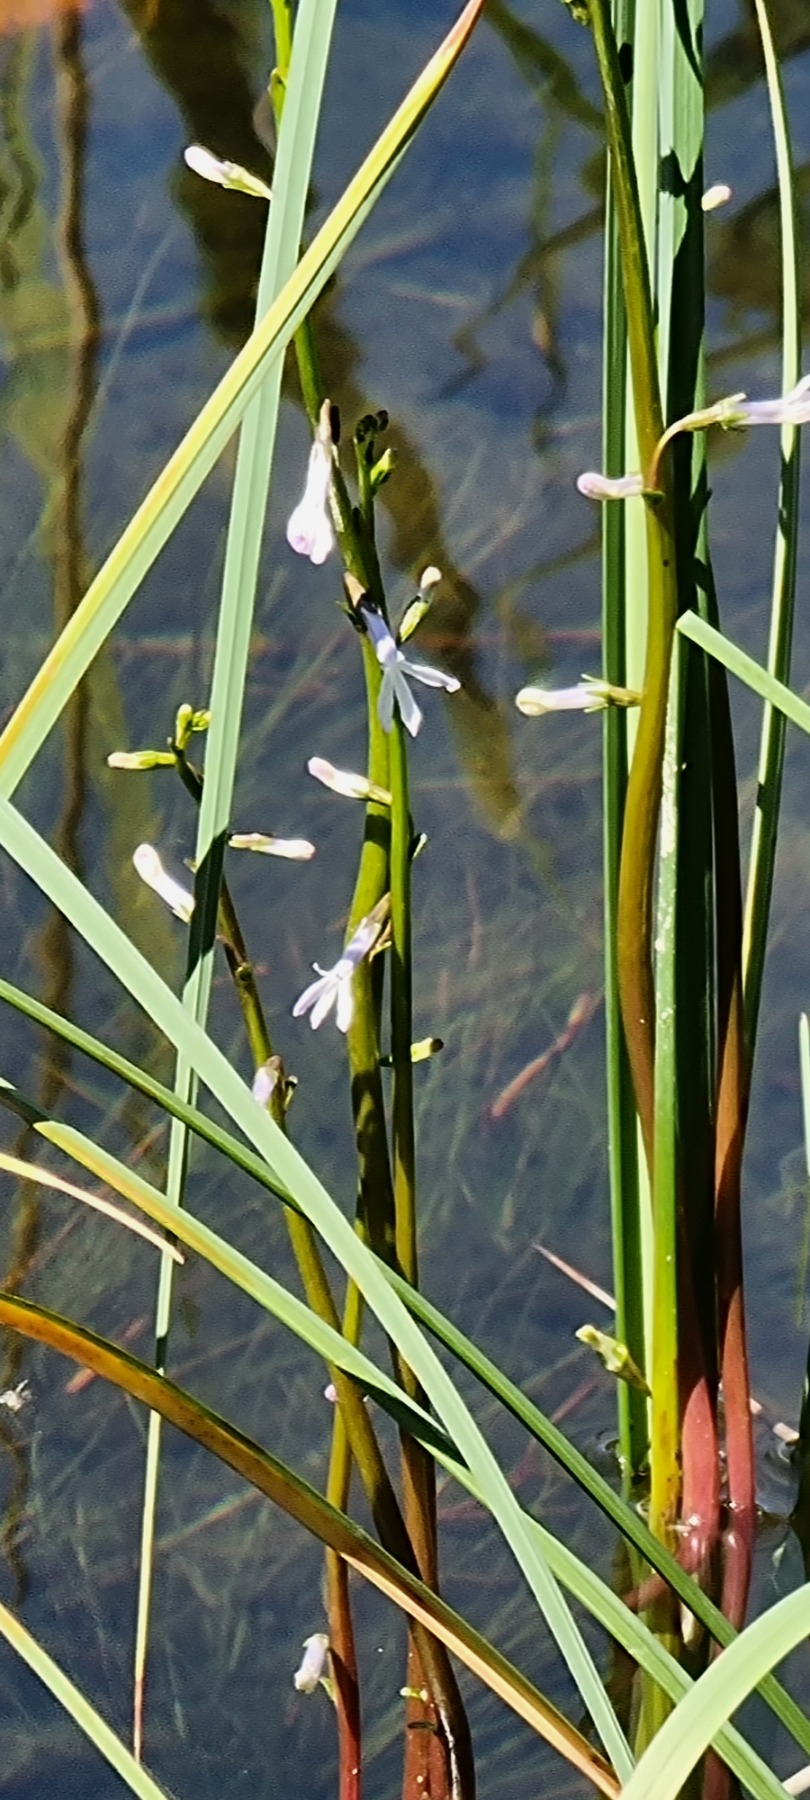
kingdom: Plantae
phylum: Tracheophyta
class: Magnoliopsida
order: Asterales
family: Campanulaceae
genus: Lobelia
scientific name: Lobelia dortmanna
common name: Tvepibet lobelie
